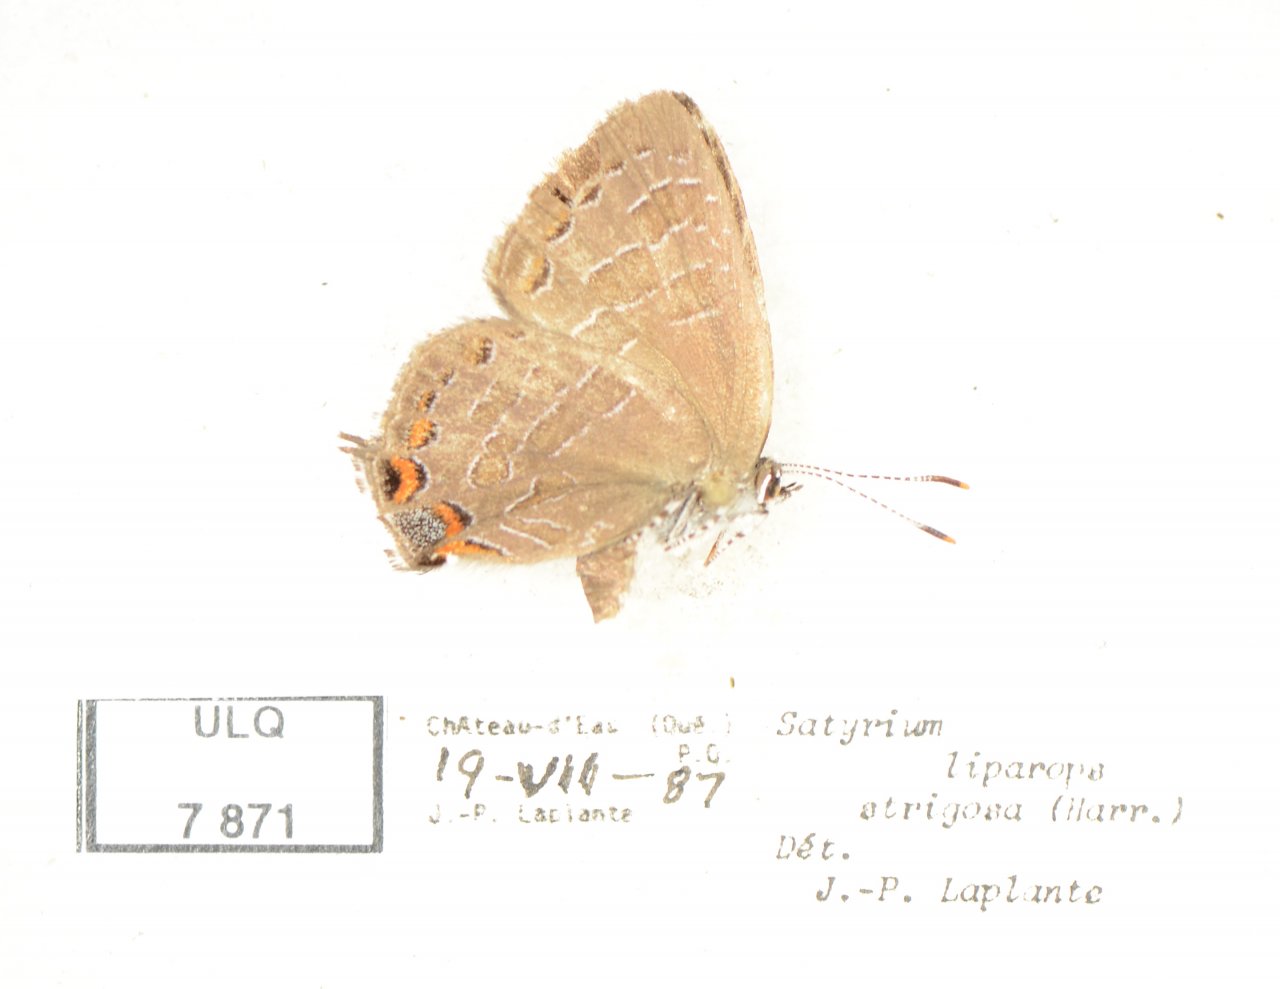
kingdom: Animalia
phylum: Arthropoda
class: Insecta
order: Lepidoptera
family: Lycaenidae
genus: Satyrium
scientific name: Satyrium liparops
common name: Striped Hairstreak
